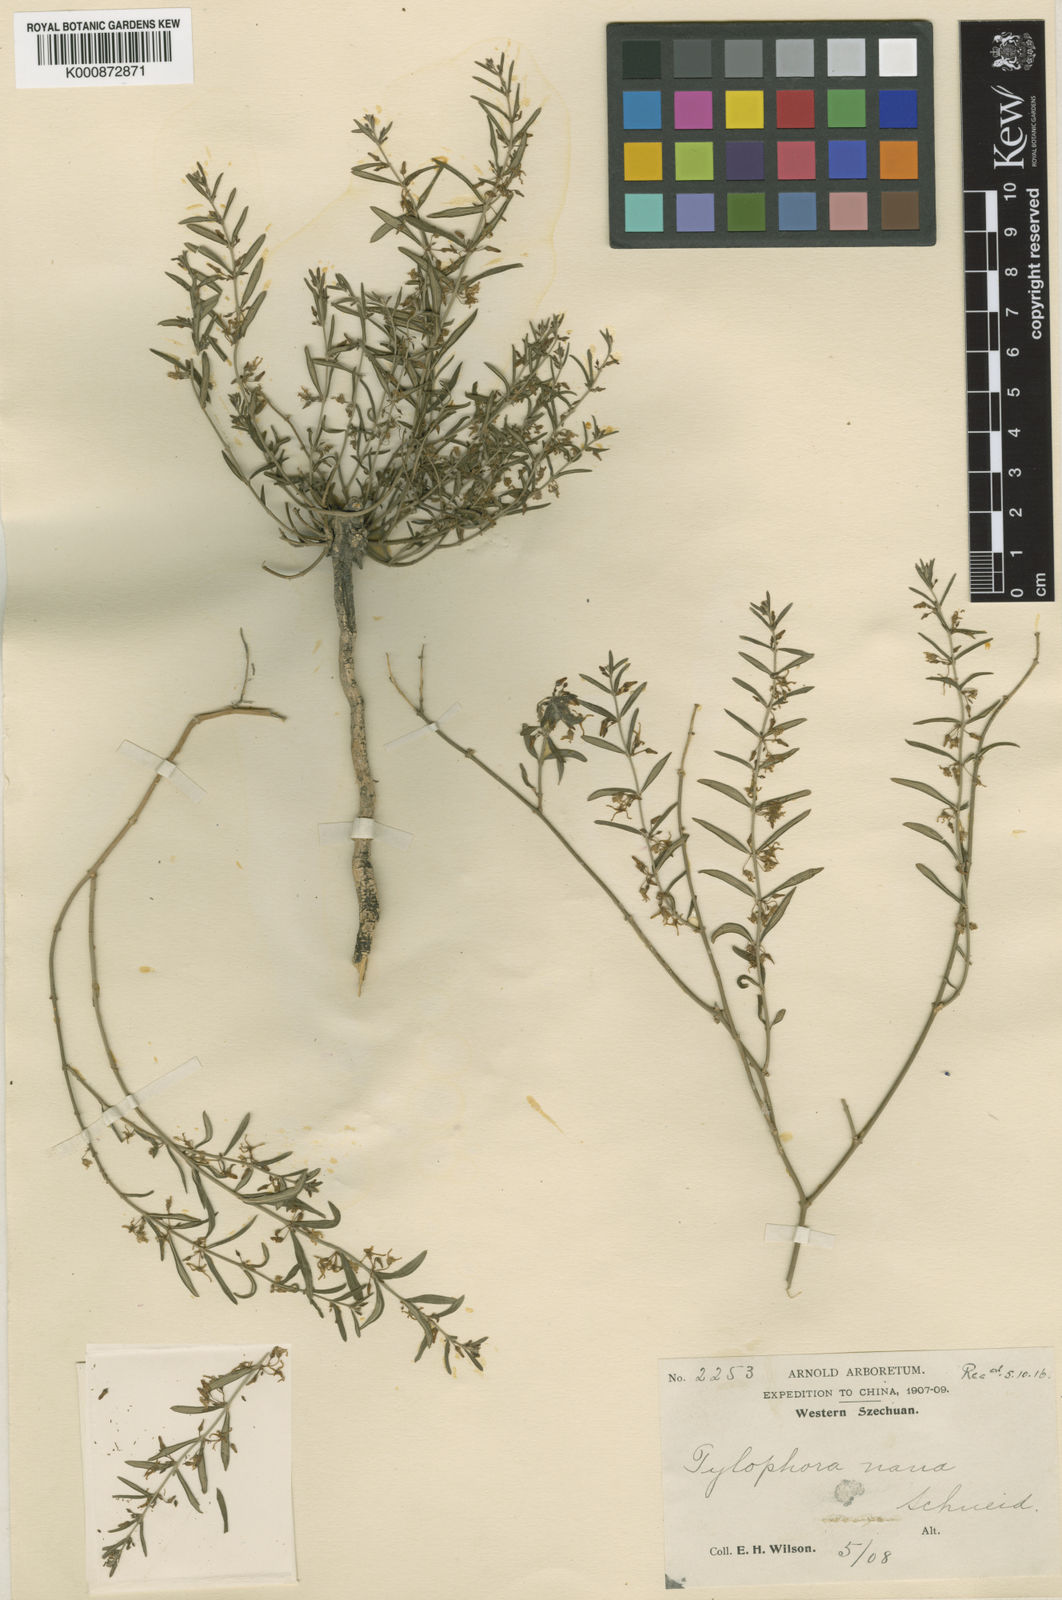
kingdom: Plantae
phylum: Tracheophyta
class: Magnoliopsida
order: Gentianales
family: Apocynaceae
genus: Vincetoxicum
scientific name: Vincetoxicum schneideri
